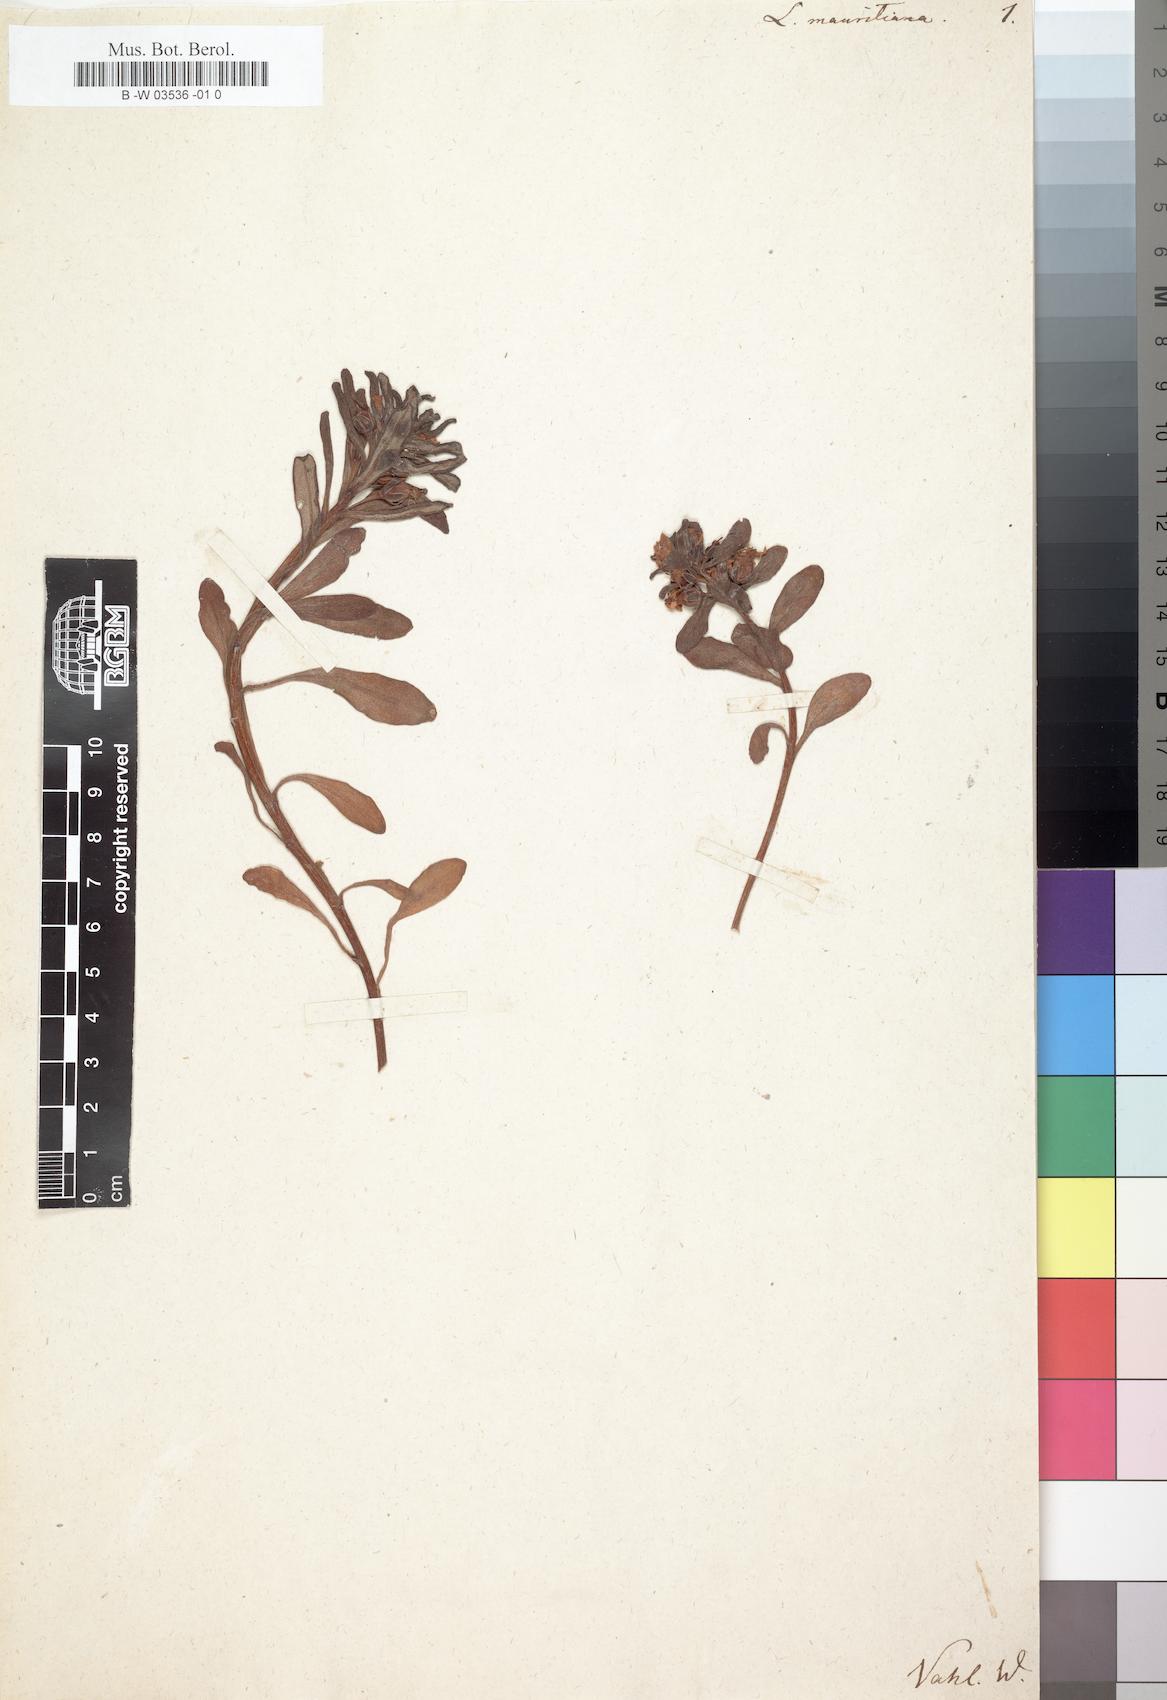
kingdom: Plantae
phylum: Tracheophyta
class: Magnoliopsida
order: Ericales
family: Primulaceae
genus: Lysimachia
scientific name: Lysimachia mauritiana
